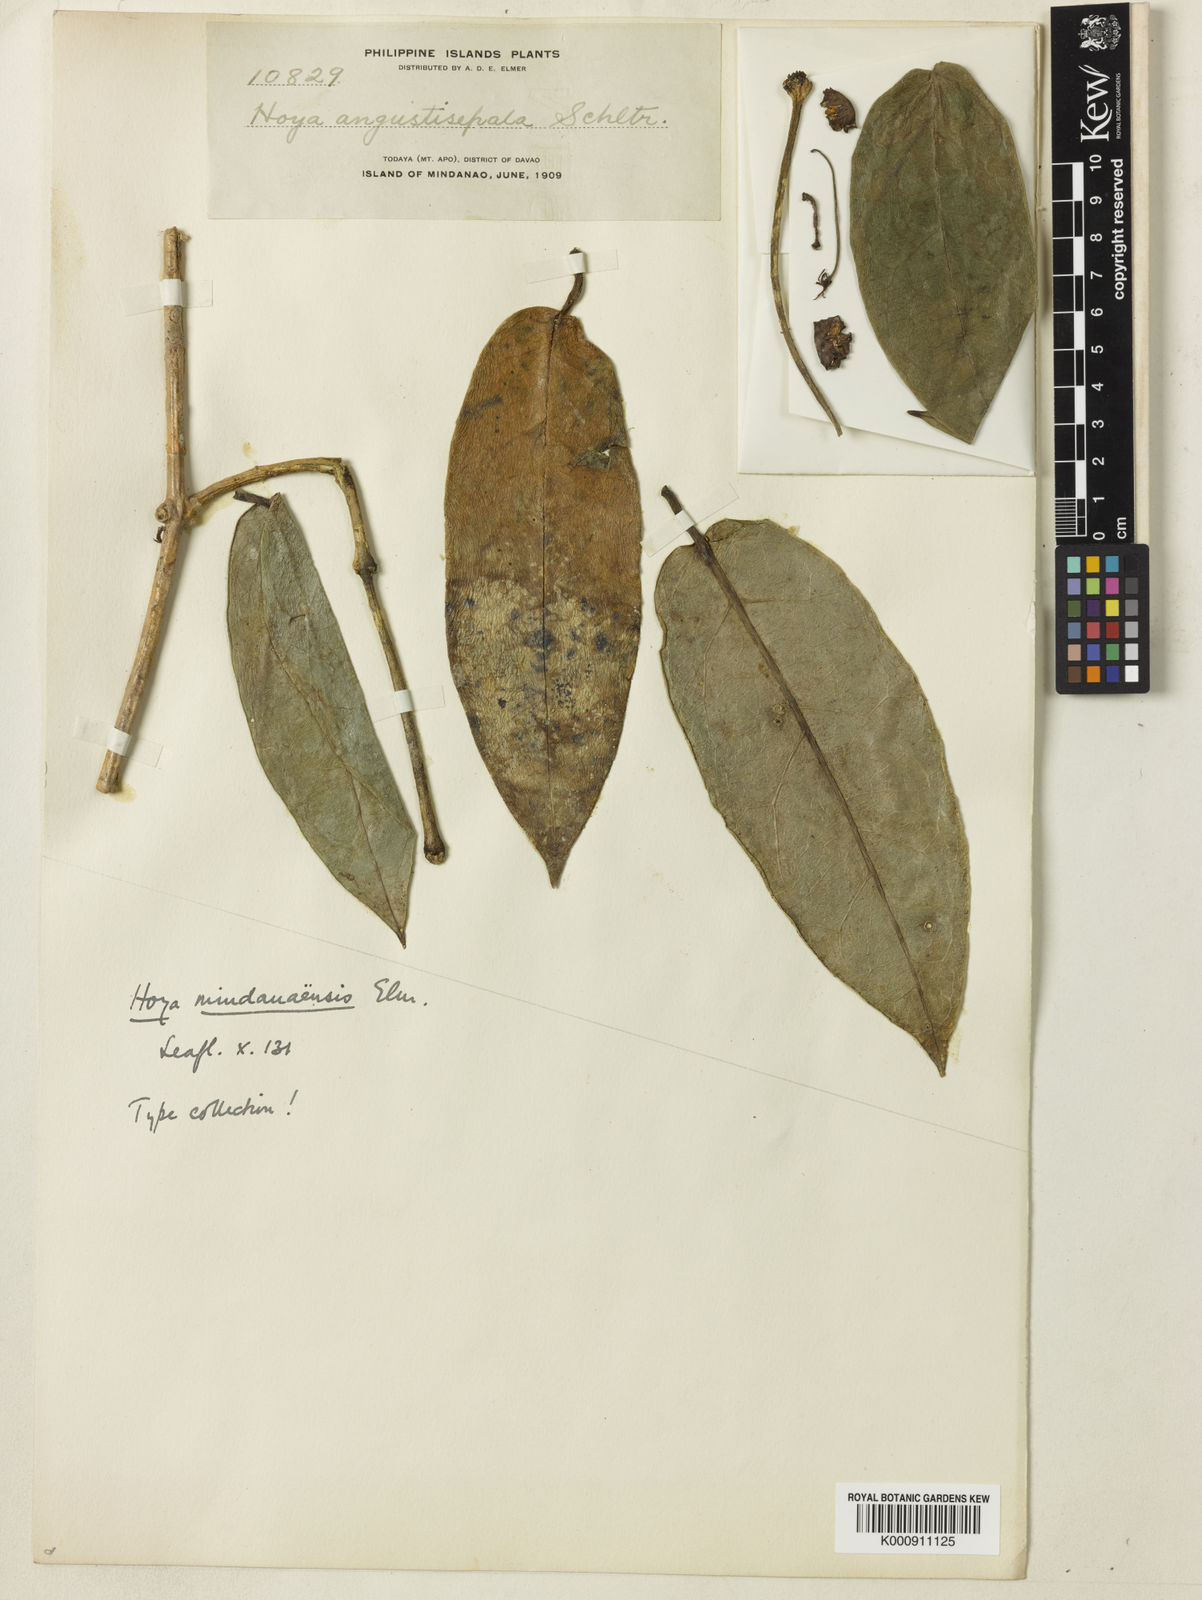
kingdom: Plantae
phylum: Tracheophyta
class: Magnoliopsida
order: Gentianales
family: Apocynaceae
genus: Hoya
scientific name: Hoya coriacea
